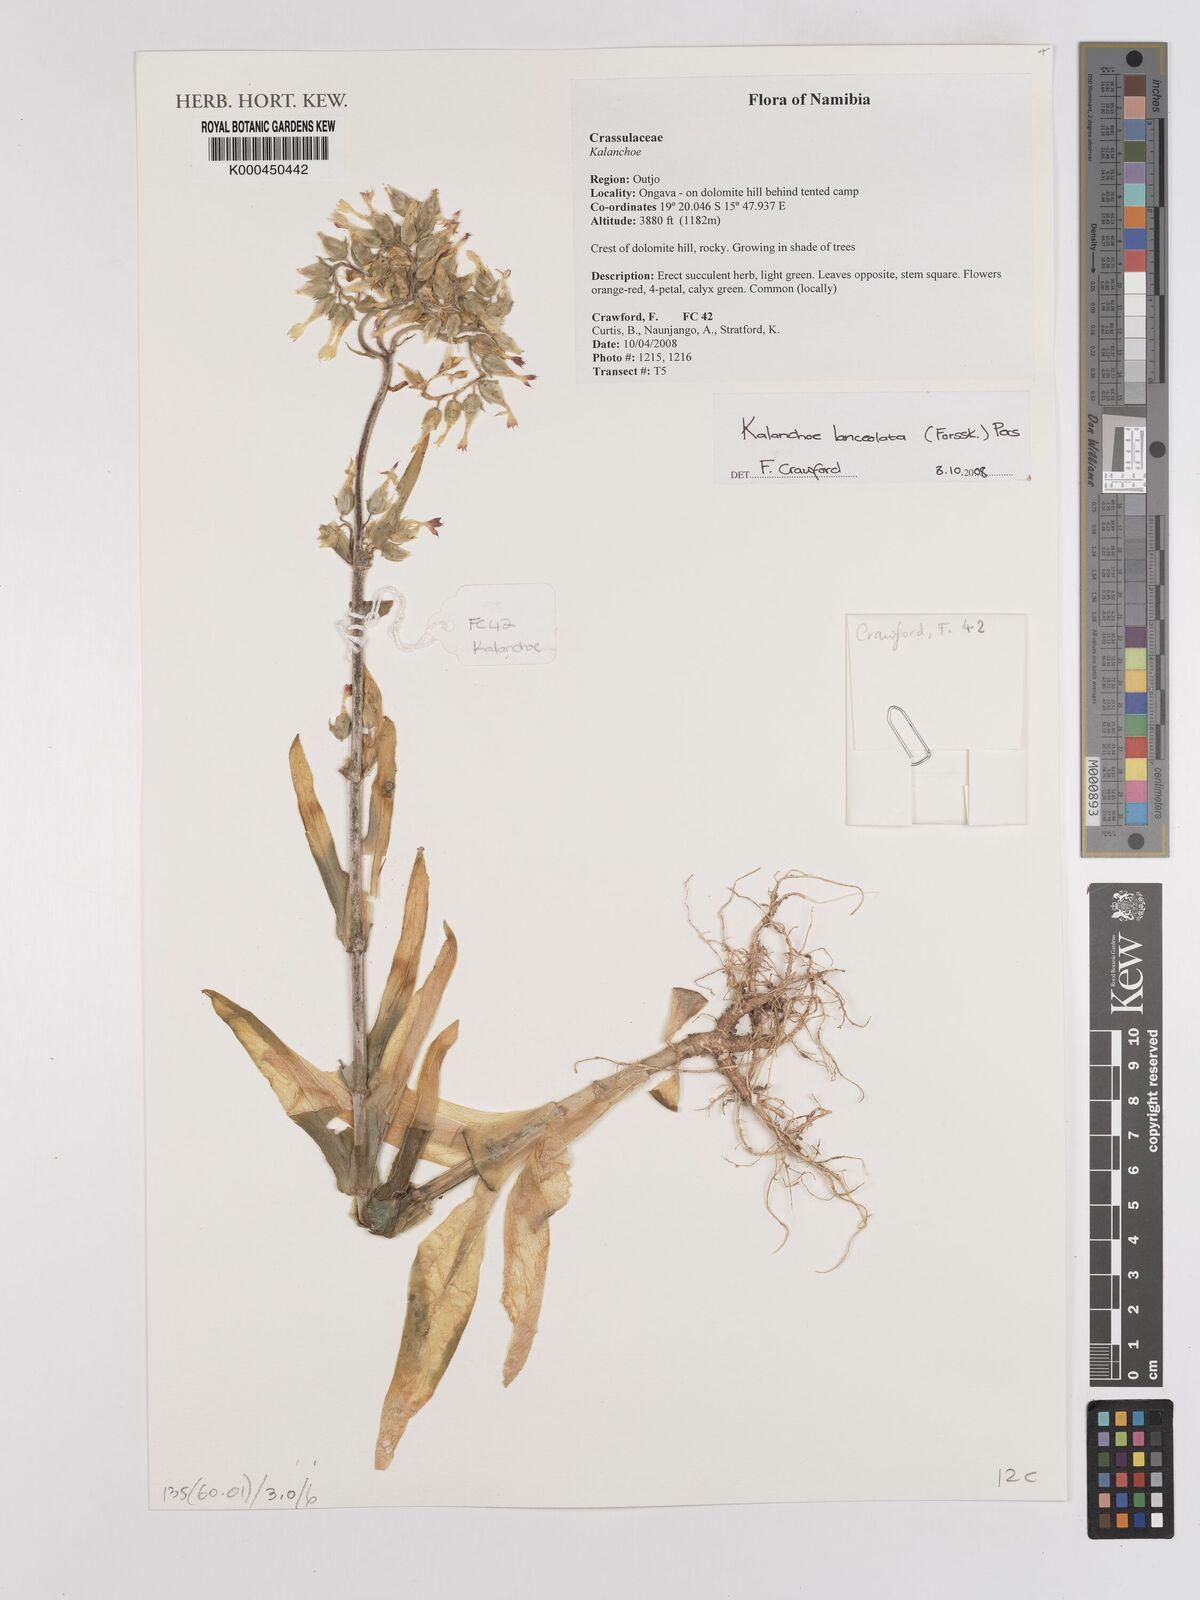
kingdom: Plantae
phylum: Tracheophyta
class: Magnoliopsida
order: Saxifragales
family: Crassulaceae
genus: Kalanchoe
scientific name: Kalanchoe lanceolata
